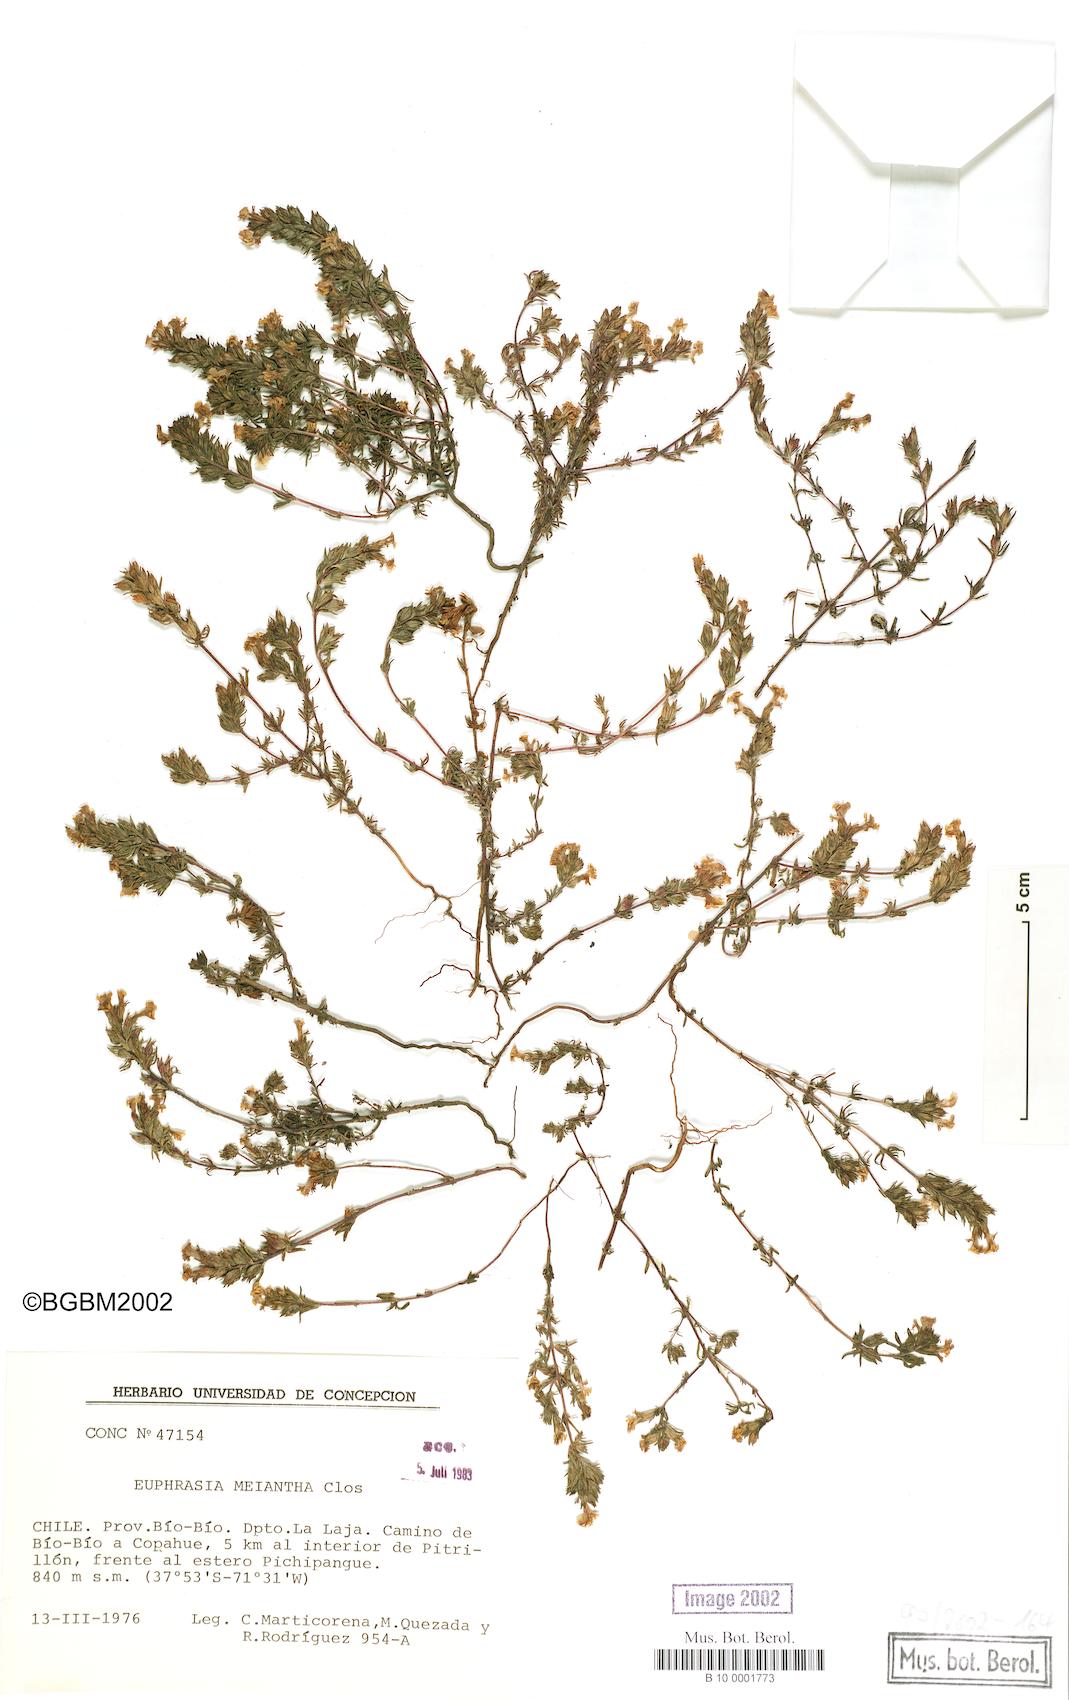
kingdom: Plantae
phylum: Tracheophyta
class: Magnoliopsida
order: Lamiales
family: Orobanchaceae
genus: Euphrasia
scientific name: Euphrasia meiantha
